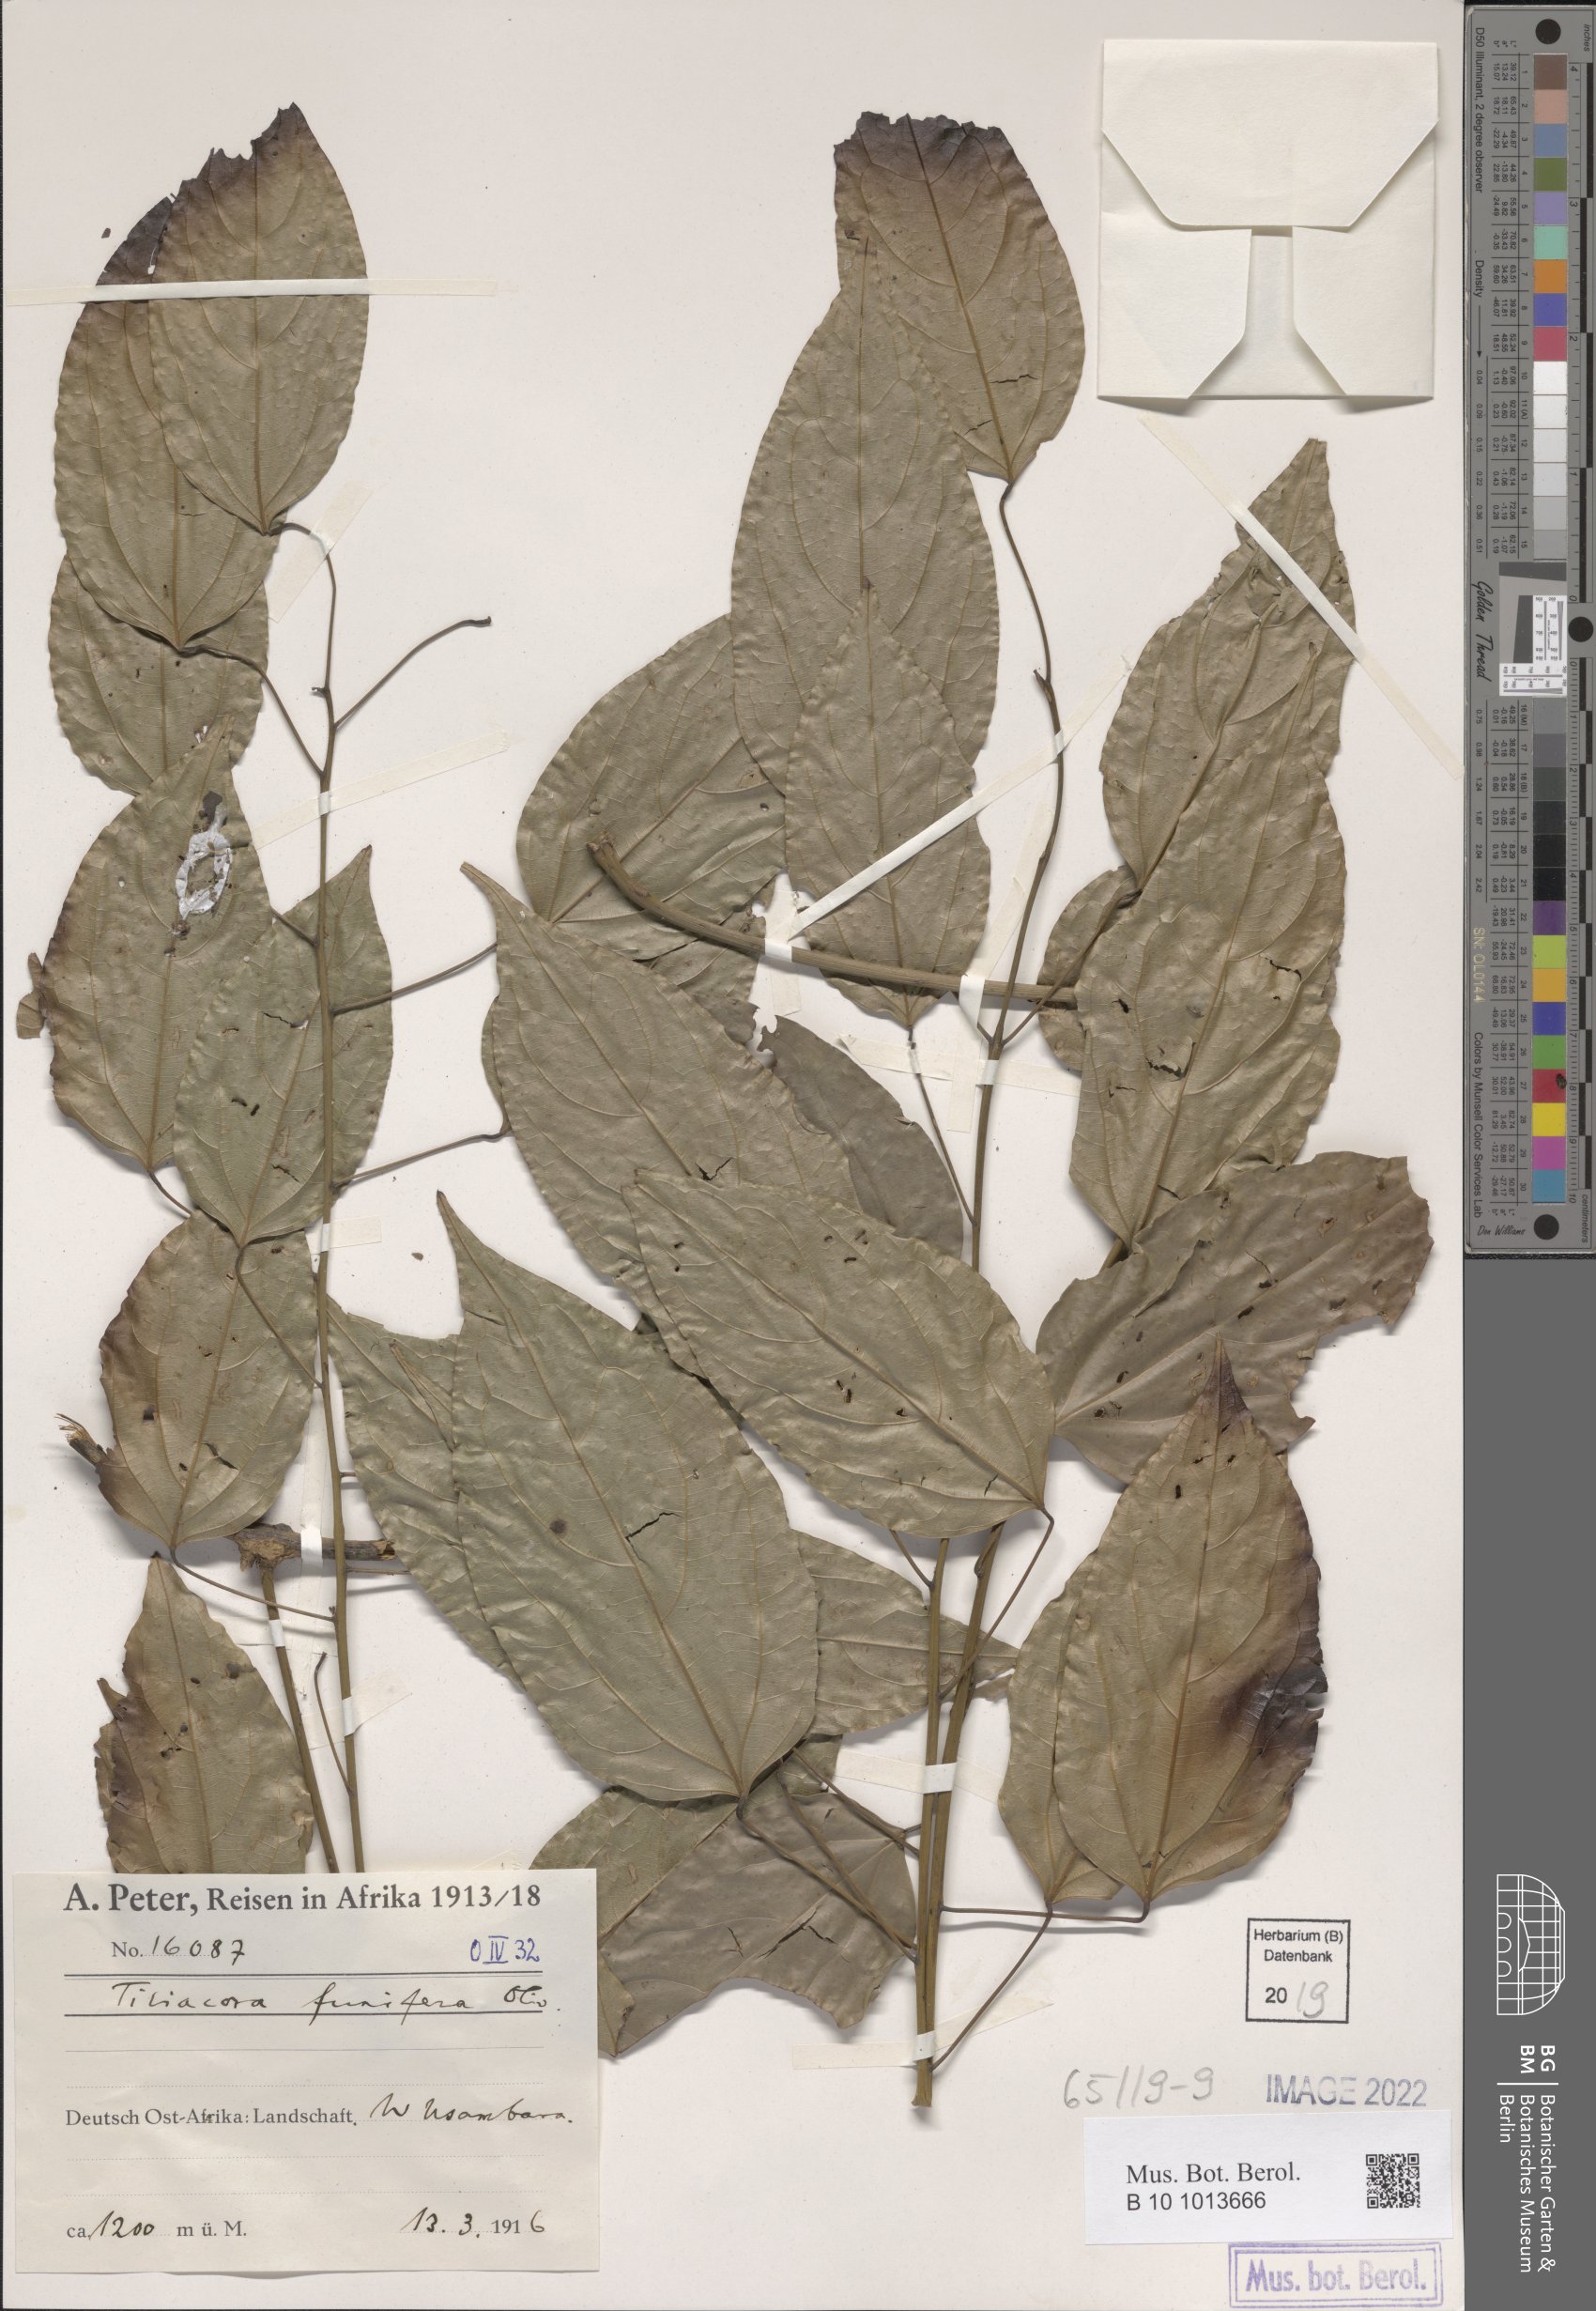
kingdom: Plantae
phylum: Tracheophyta
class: Magnoliopsida
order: Ranunculales
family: Menispermaceae
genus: Tiliacora
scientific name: Tiliacora funifera
